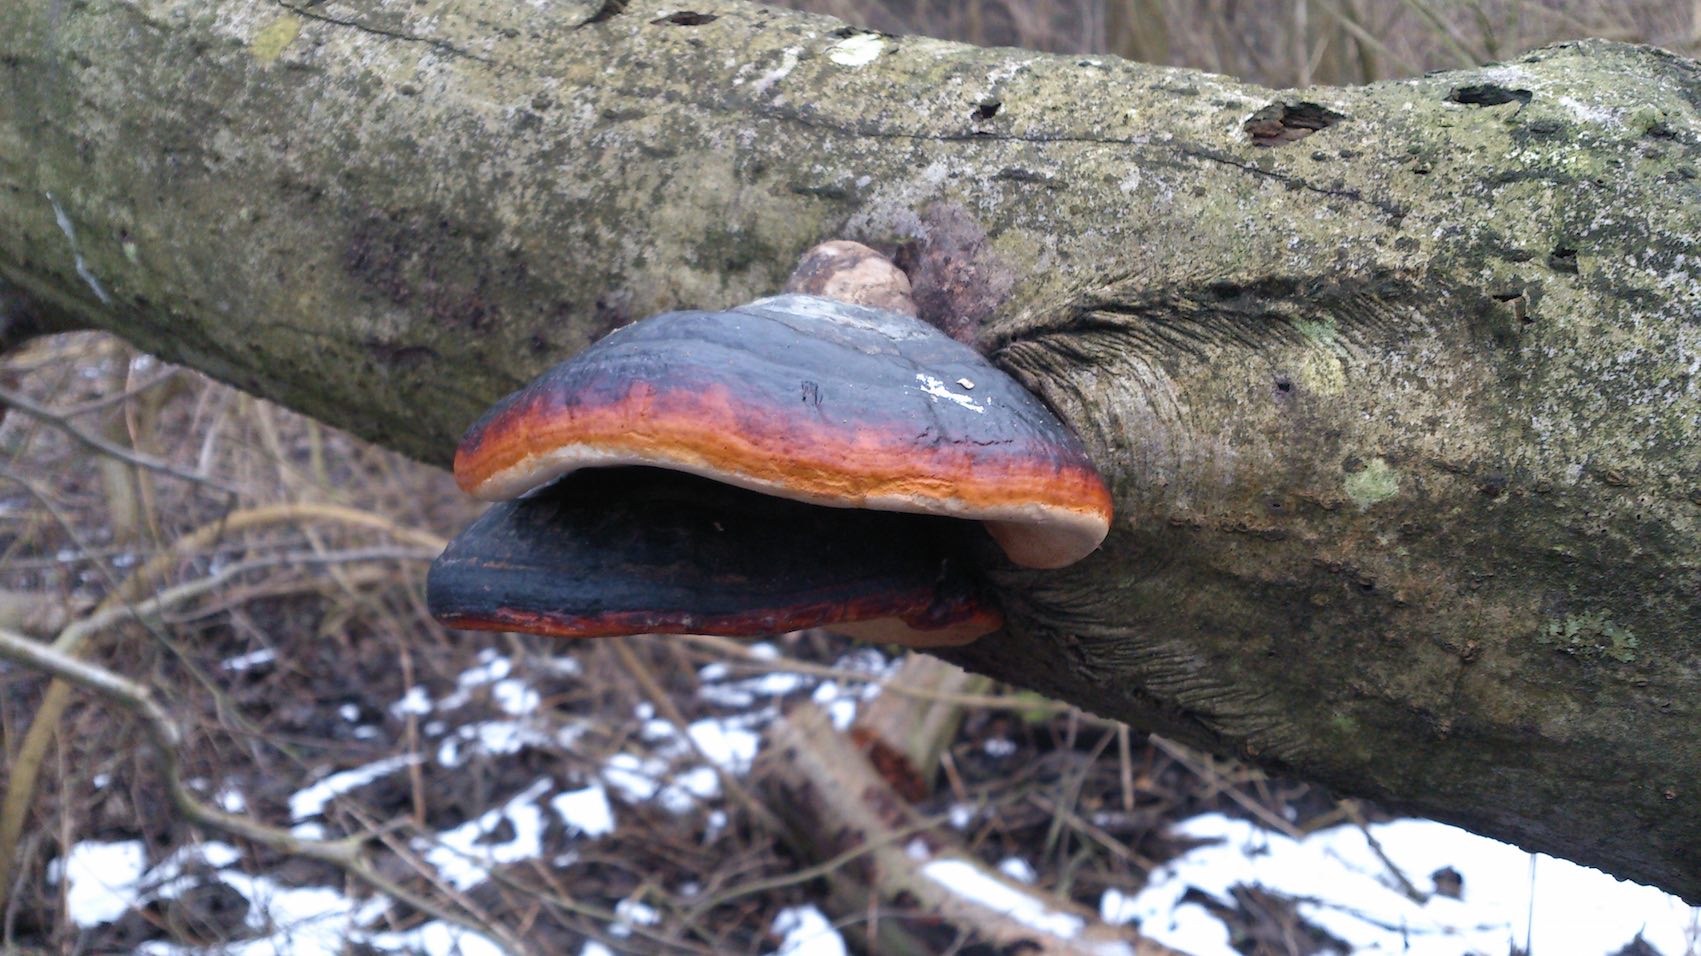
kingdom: Fungi
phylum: Basidiomycota
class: Agaricomycetes
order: Polyporales
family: Fomitopsidaceae
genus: Fomitopsis
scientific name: Fomitopsis pinicola
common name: randbæltet hovporesvamp
